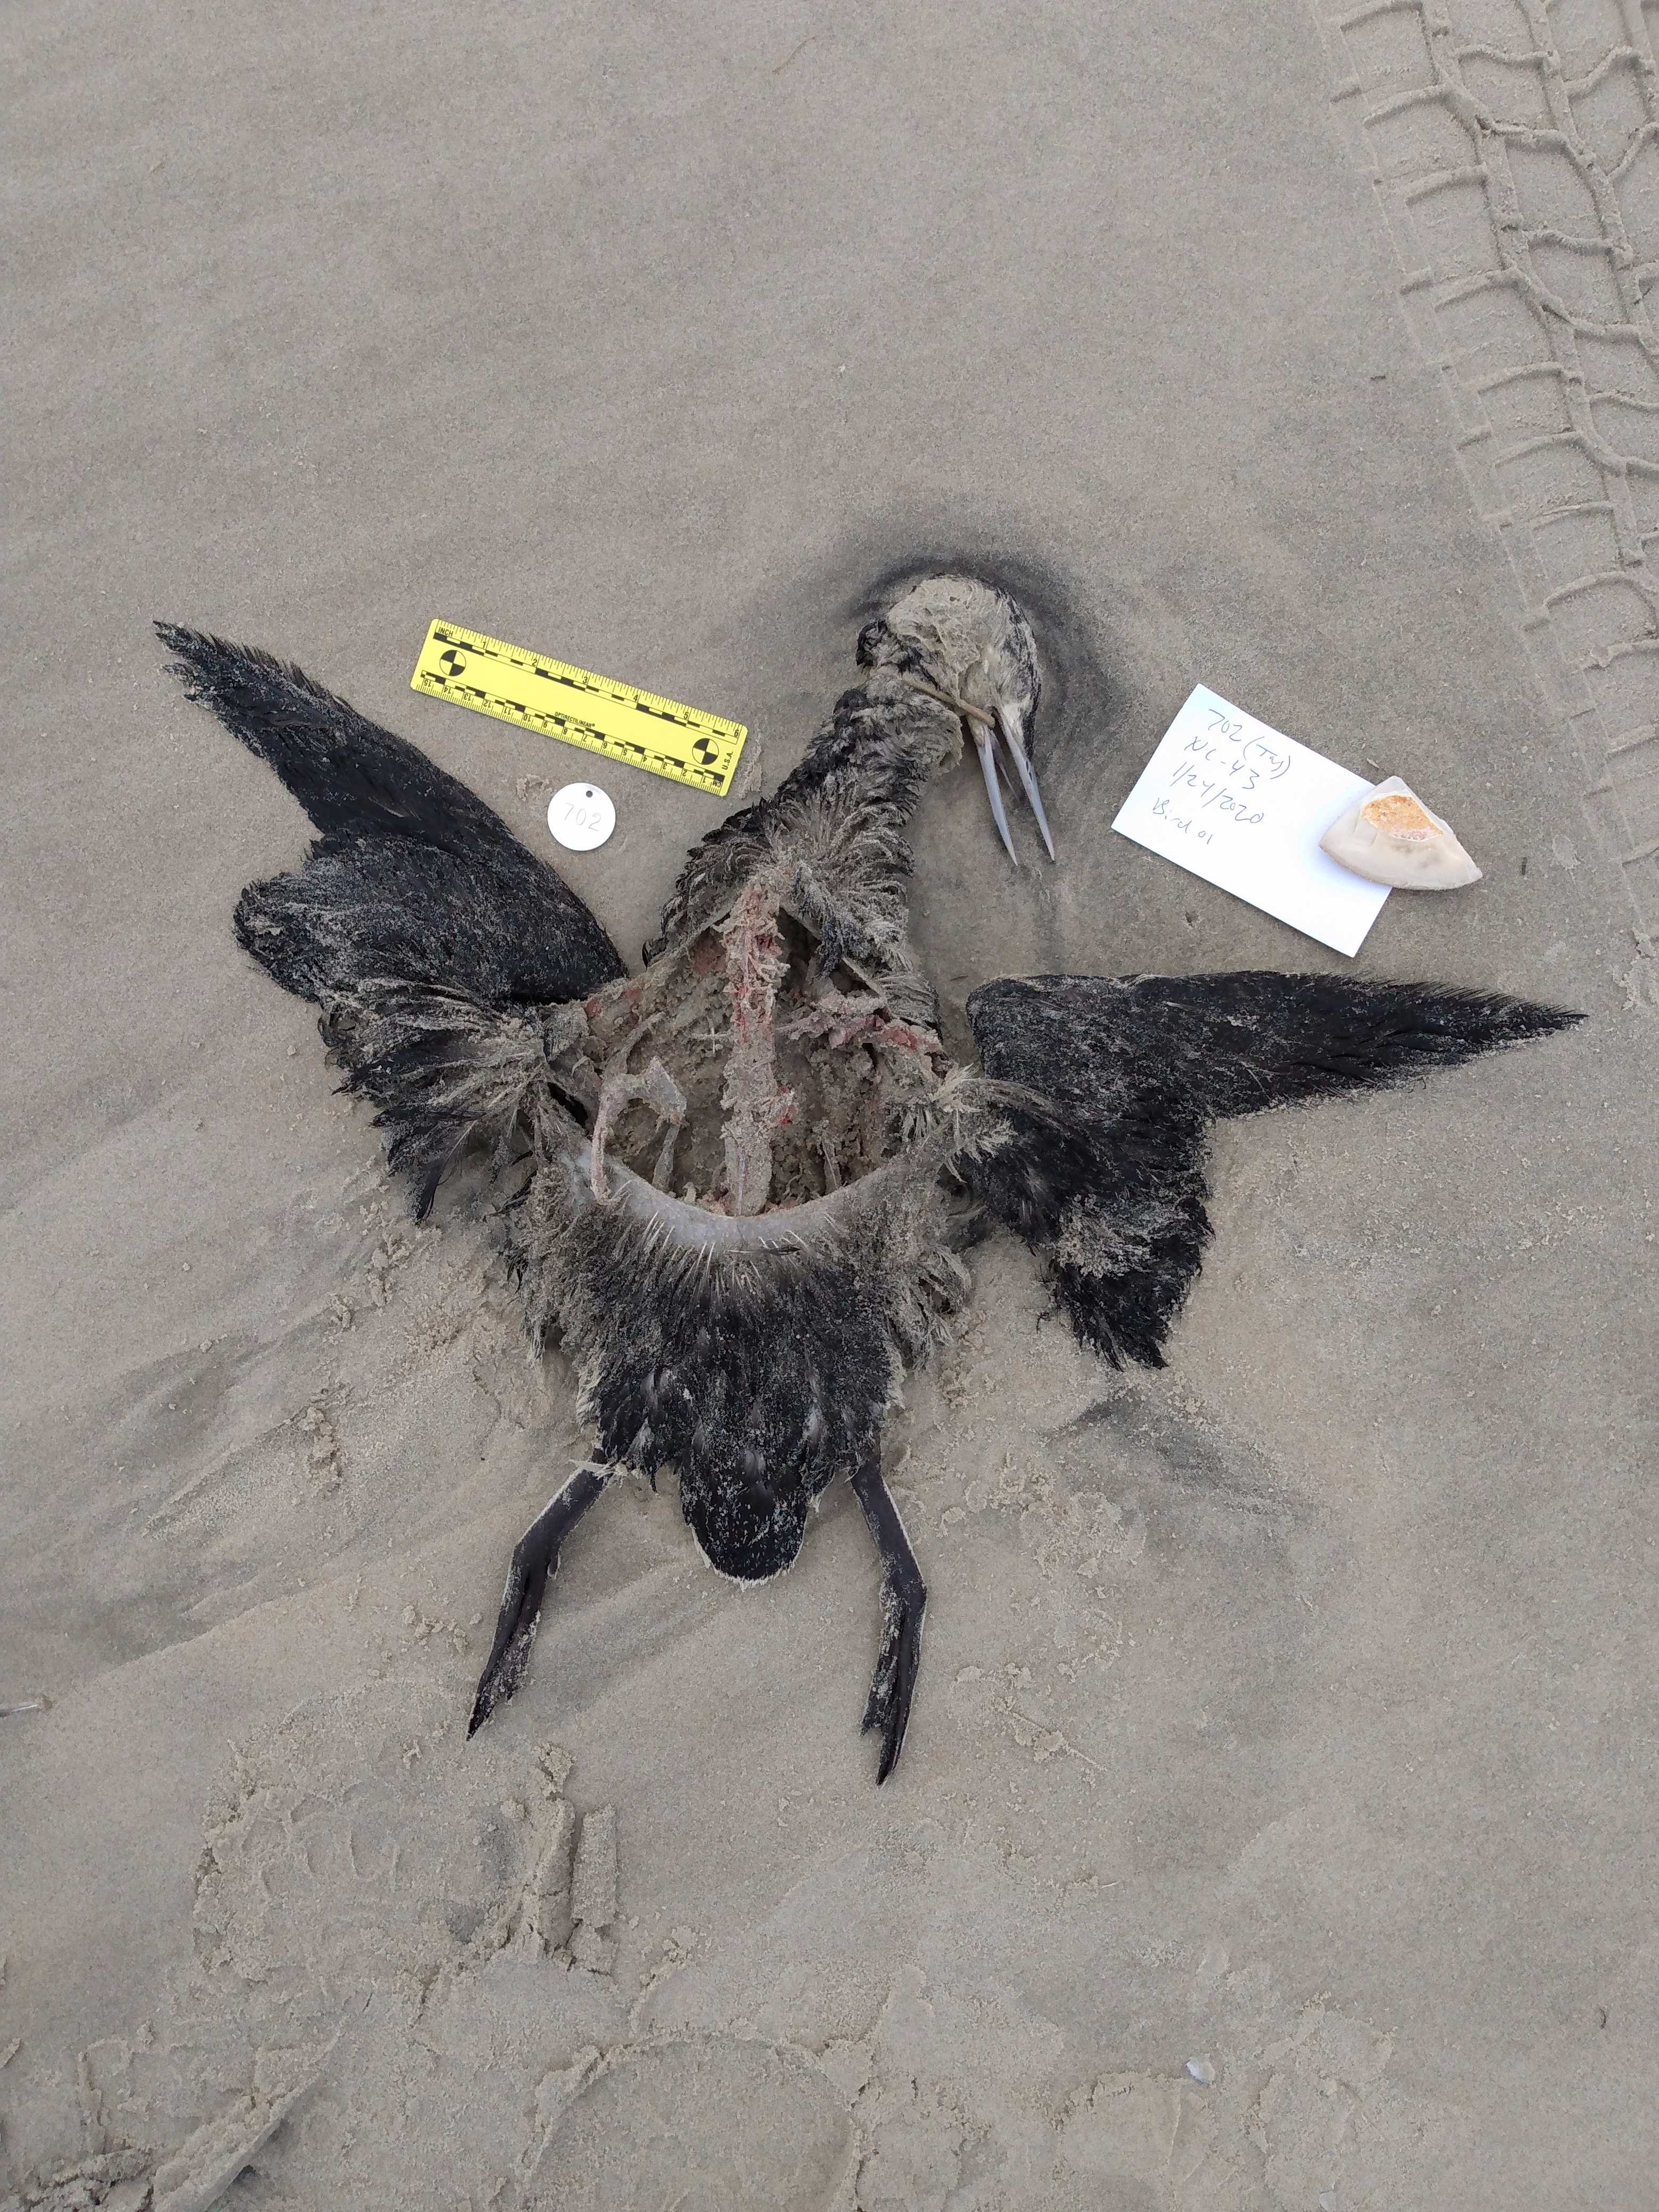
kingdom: Animalia
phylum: Chordata
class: Aves
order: Gaviiformes
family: Gaviidae
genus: Gavia
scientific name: Gavia stellata
